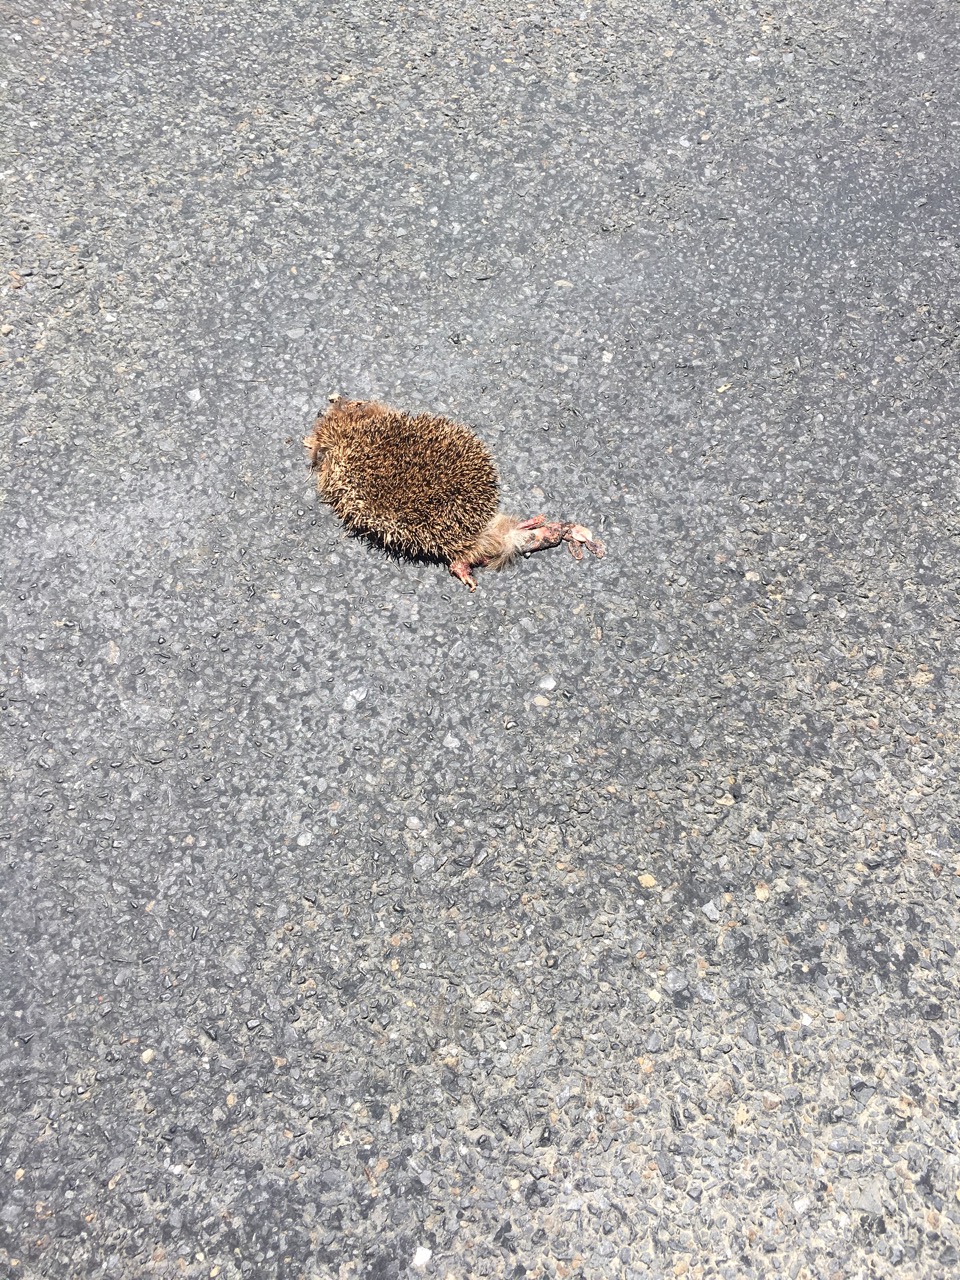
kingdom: Animalia
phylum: Chordata
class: Mammalia
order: Erinaceomorpha
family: Erinaceidae
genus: Erinaceus
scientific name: Erinaceus
